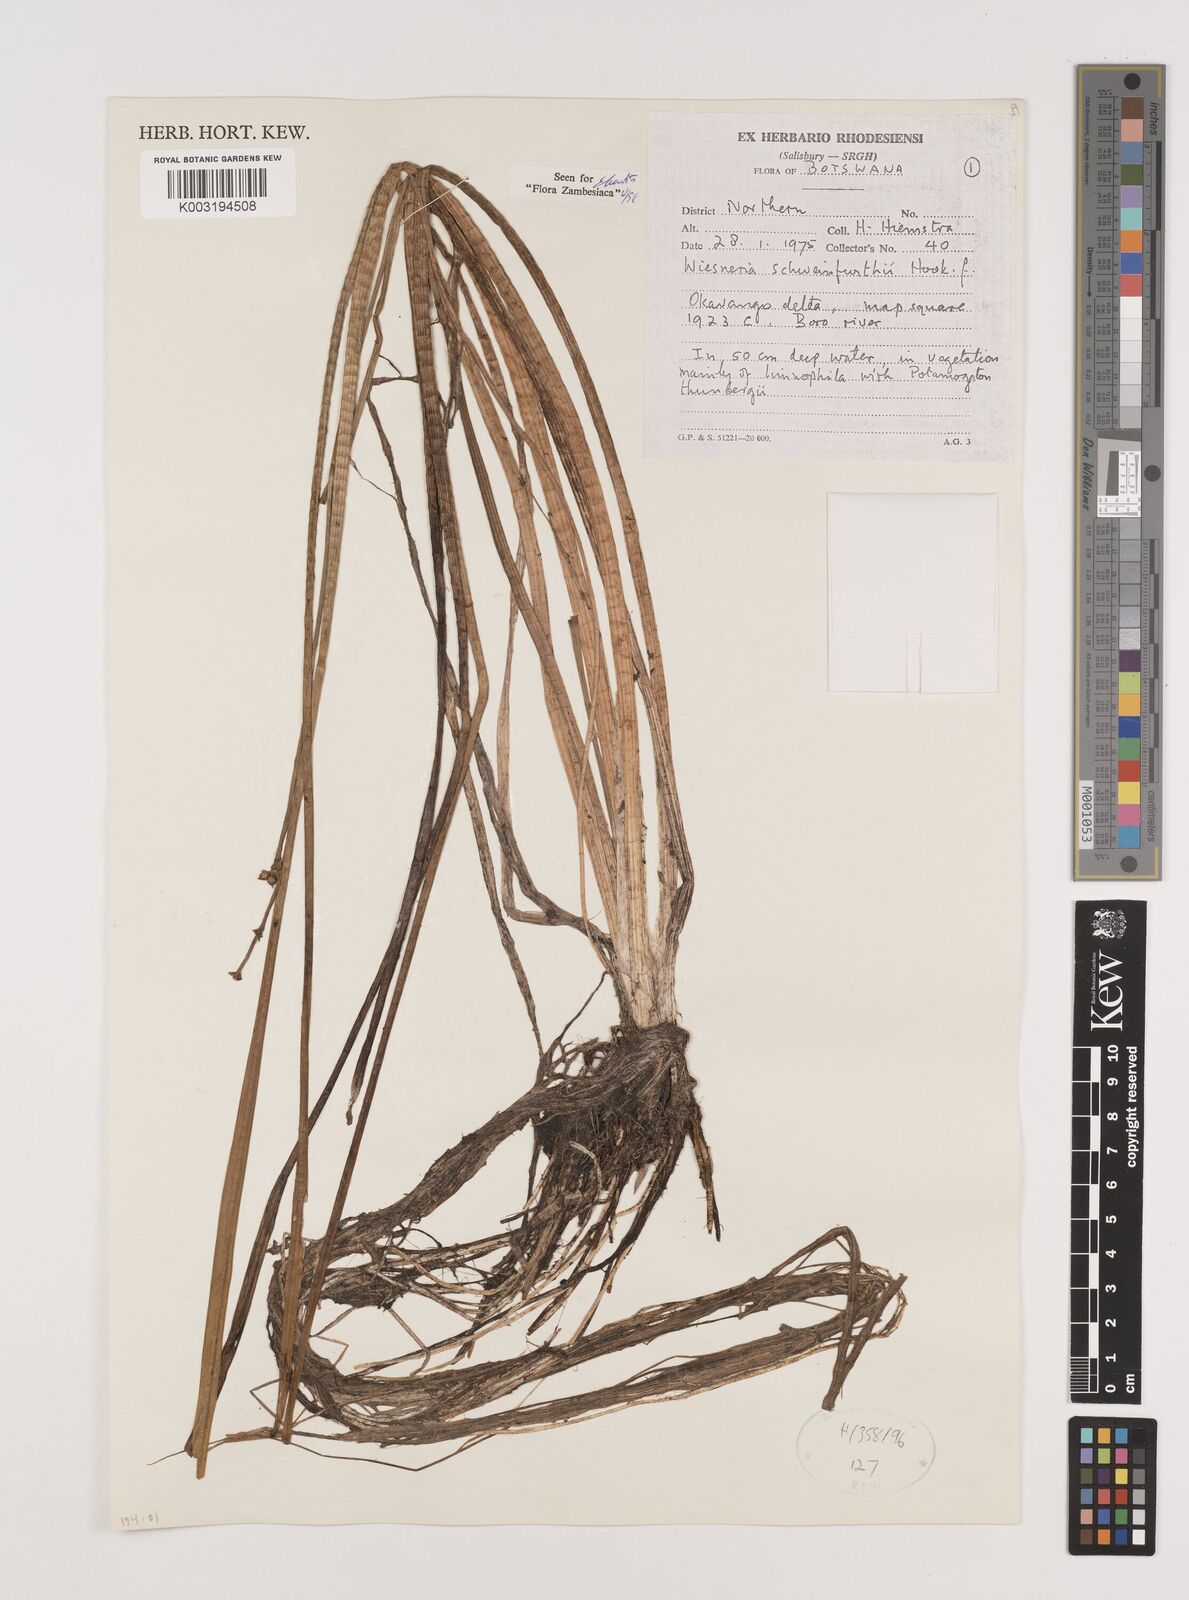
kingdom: Plantae
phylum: Tracheophyta
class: Liliopsida
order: Alismatales
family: Alismataceae
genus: Wiesneria
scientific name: Wiesneria schweinfurthii
